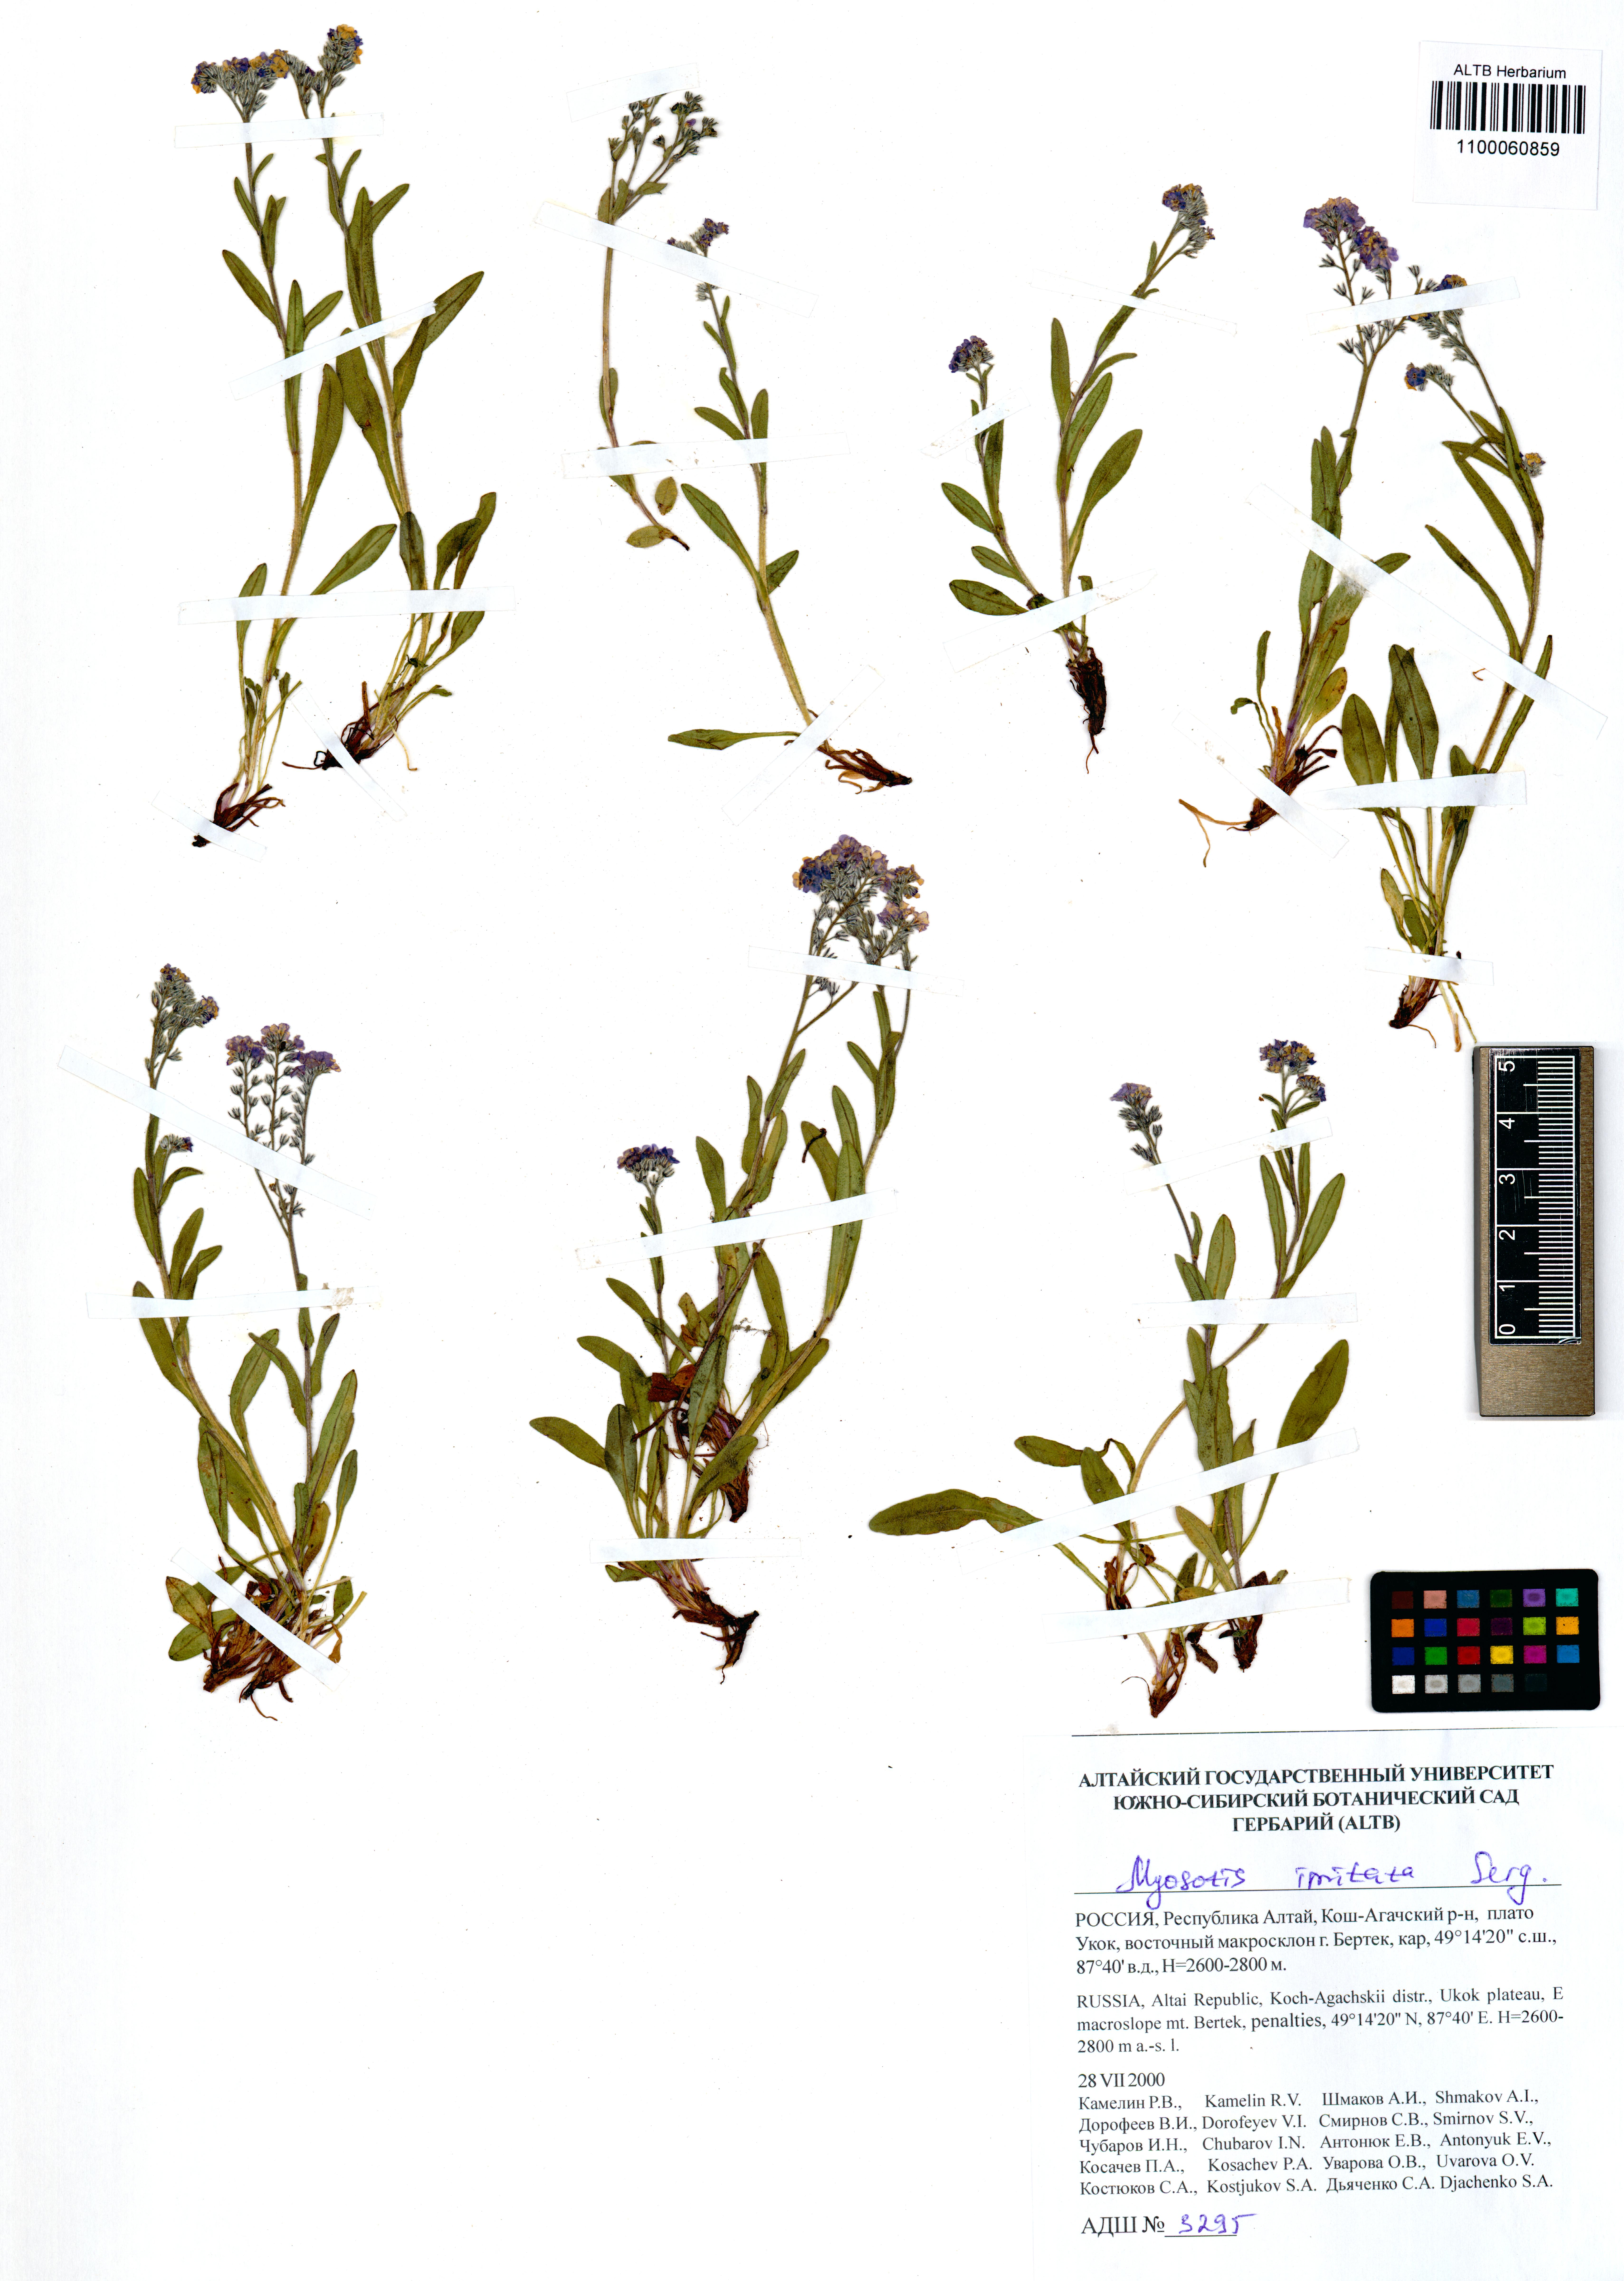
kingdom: Plantae
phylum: Tracheophyta
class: Magnoliopsida
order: Boraginales
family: Boraginaceae
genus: Myosotis
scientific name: Myosotis imitata
